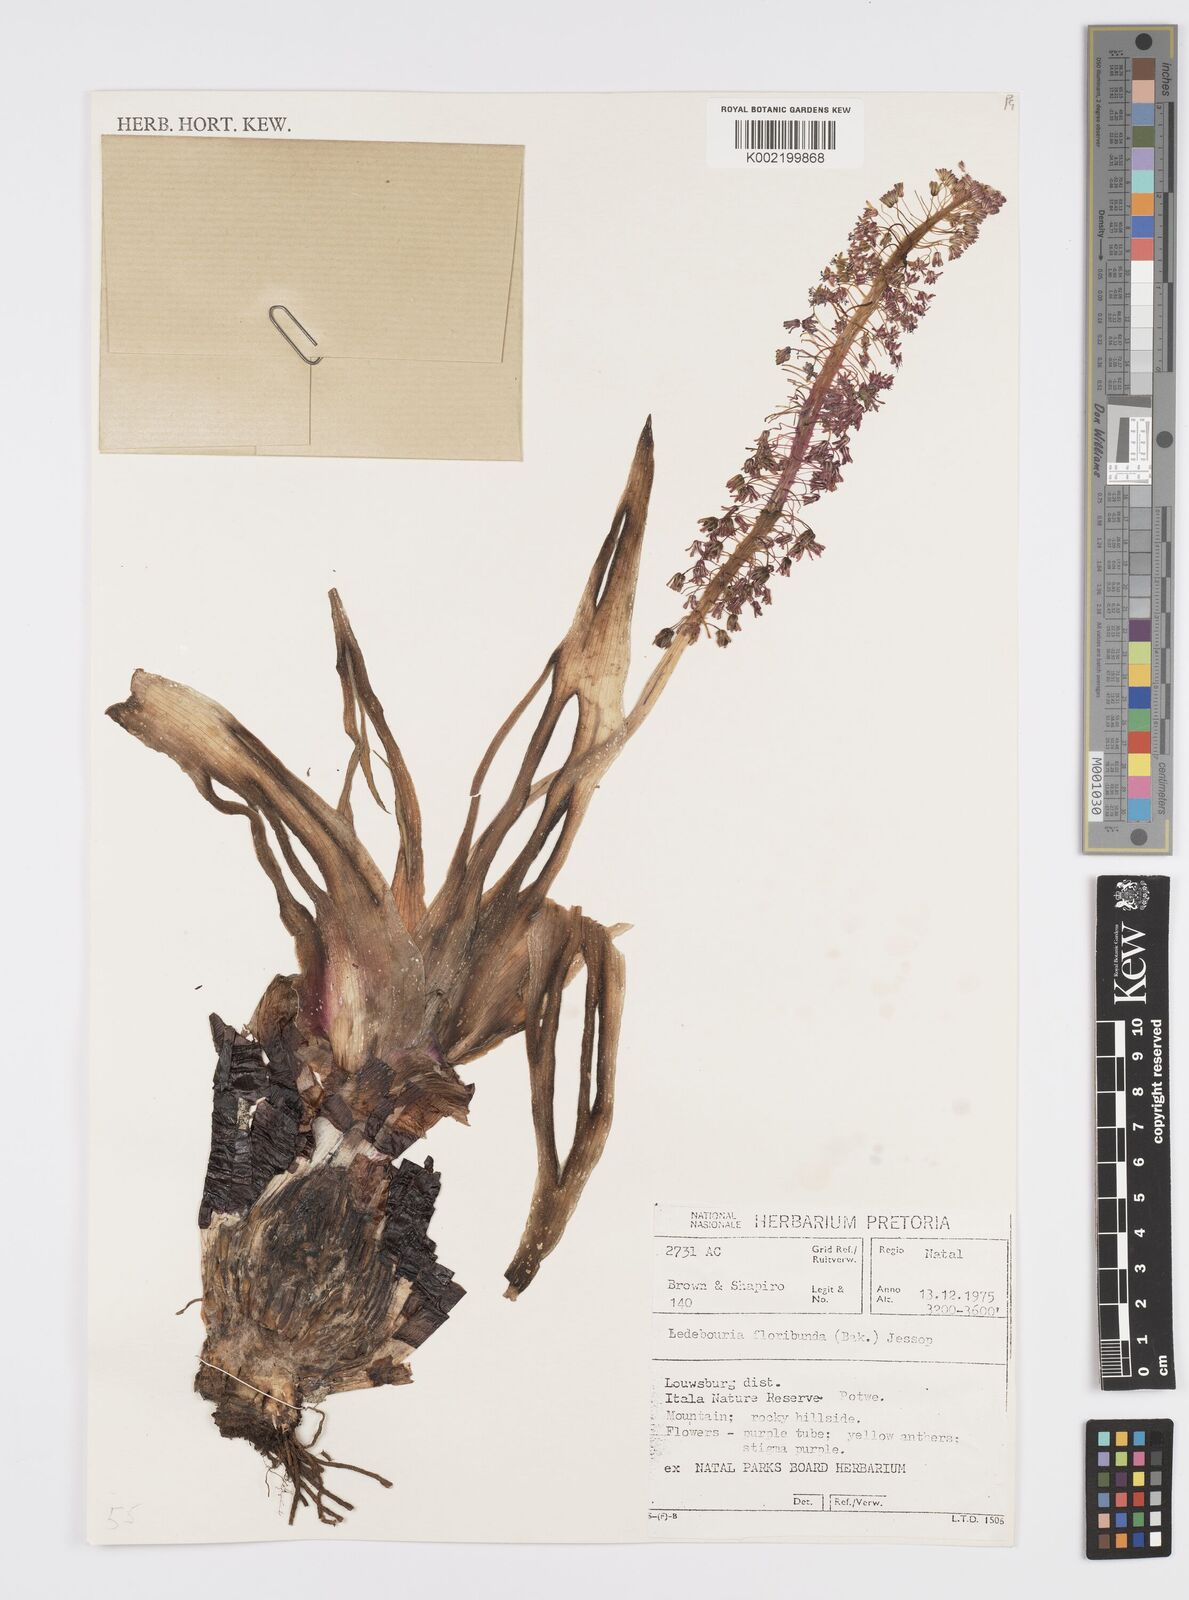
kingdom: Plantae
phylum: Tracheophyta
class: Liliopsida
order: Asparagales
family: Asparagaceae
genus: Ledebouria
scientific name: Ledebouria floribunda
